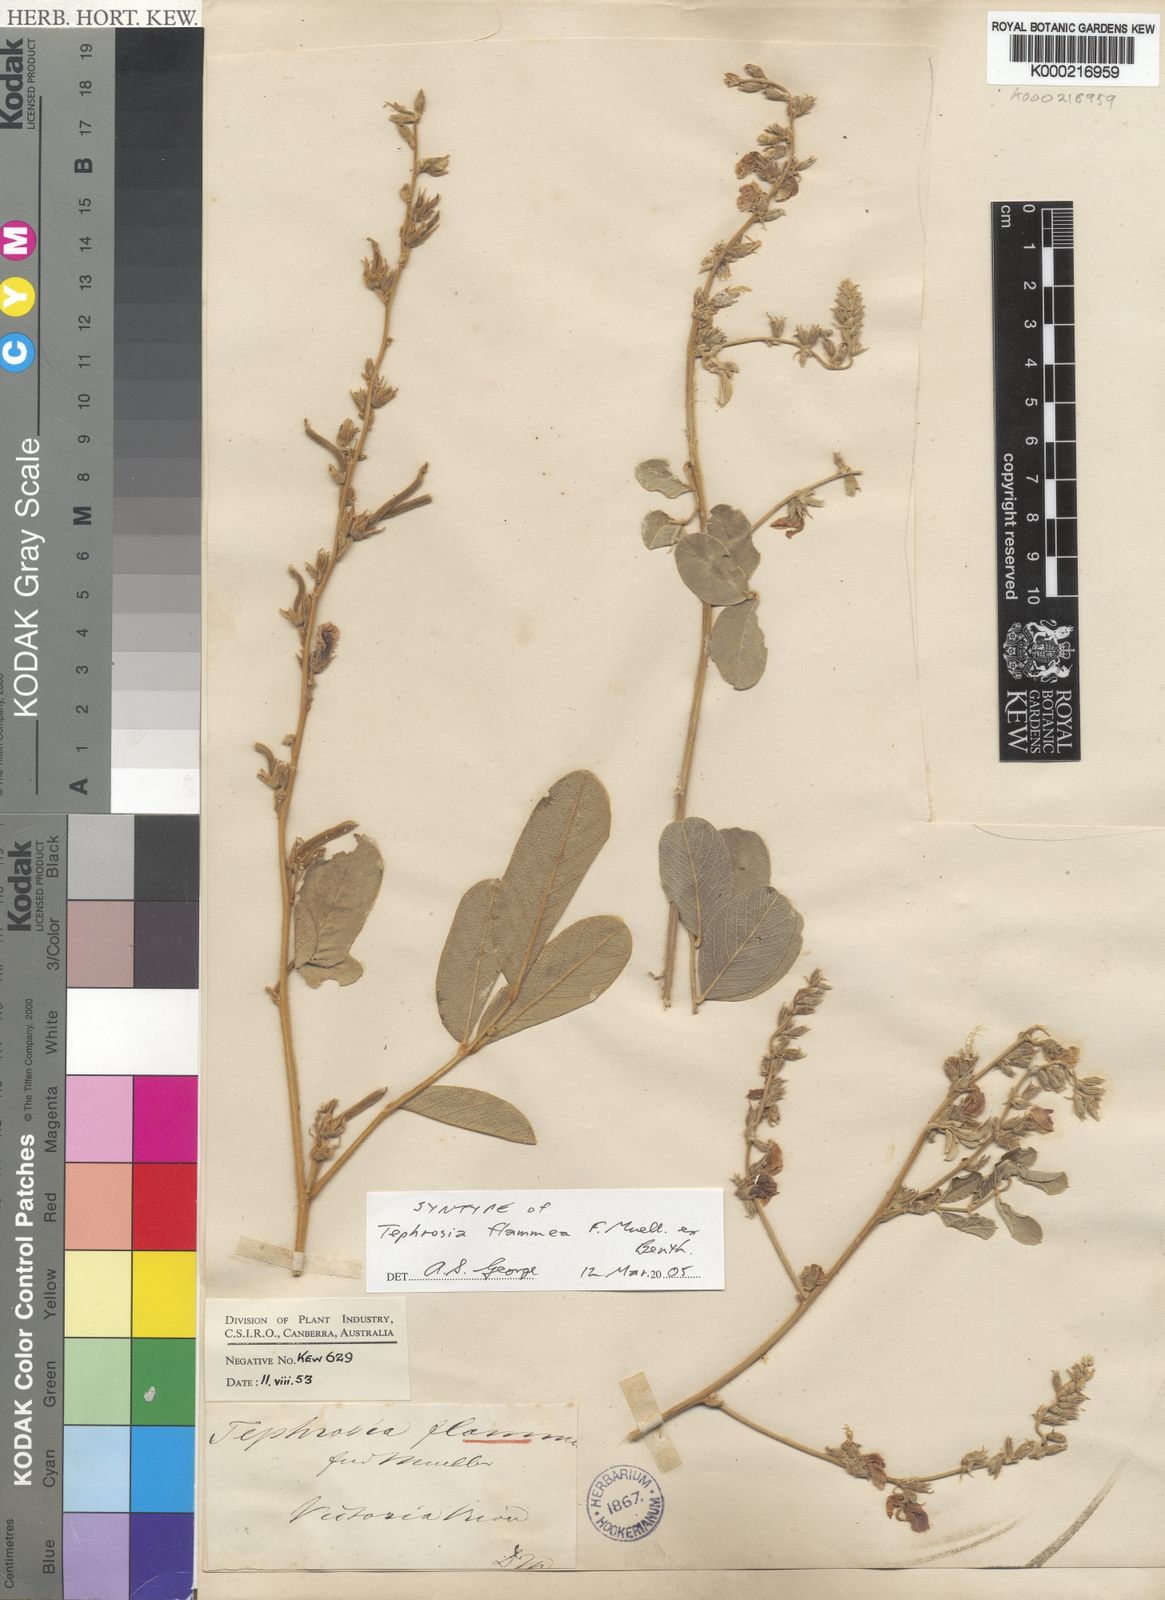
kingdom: Plantae
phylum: Tracheophyta
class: Magnoliopsida
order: Fabales
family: Fabaceae
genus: Tephrosia
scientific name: Tephrosia flammea
